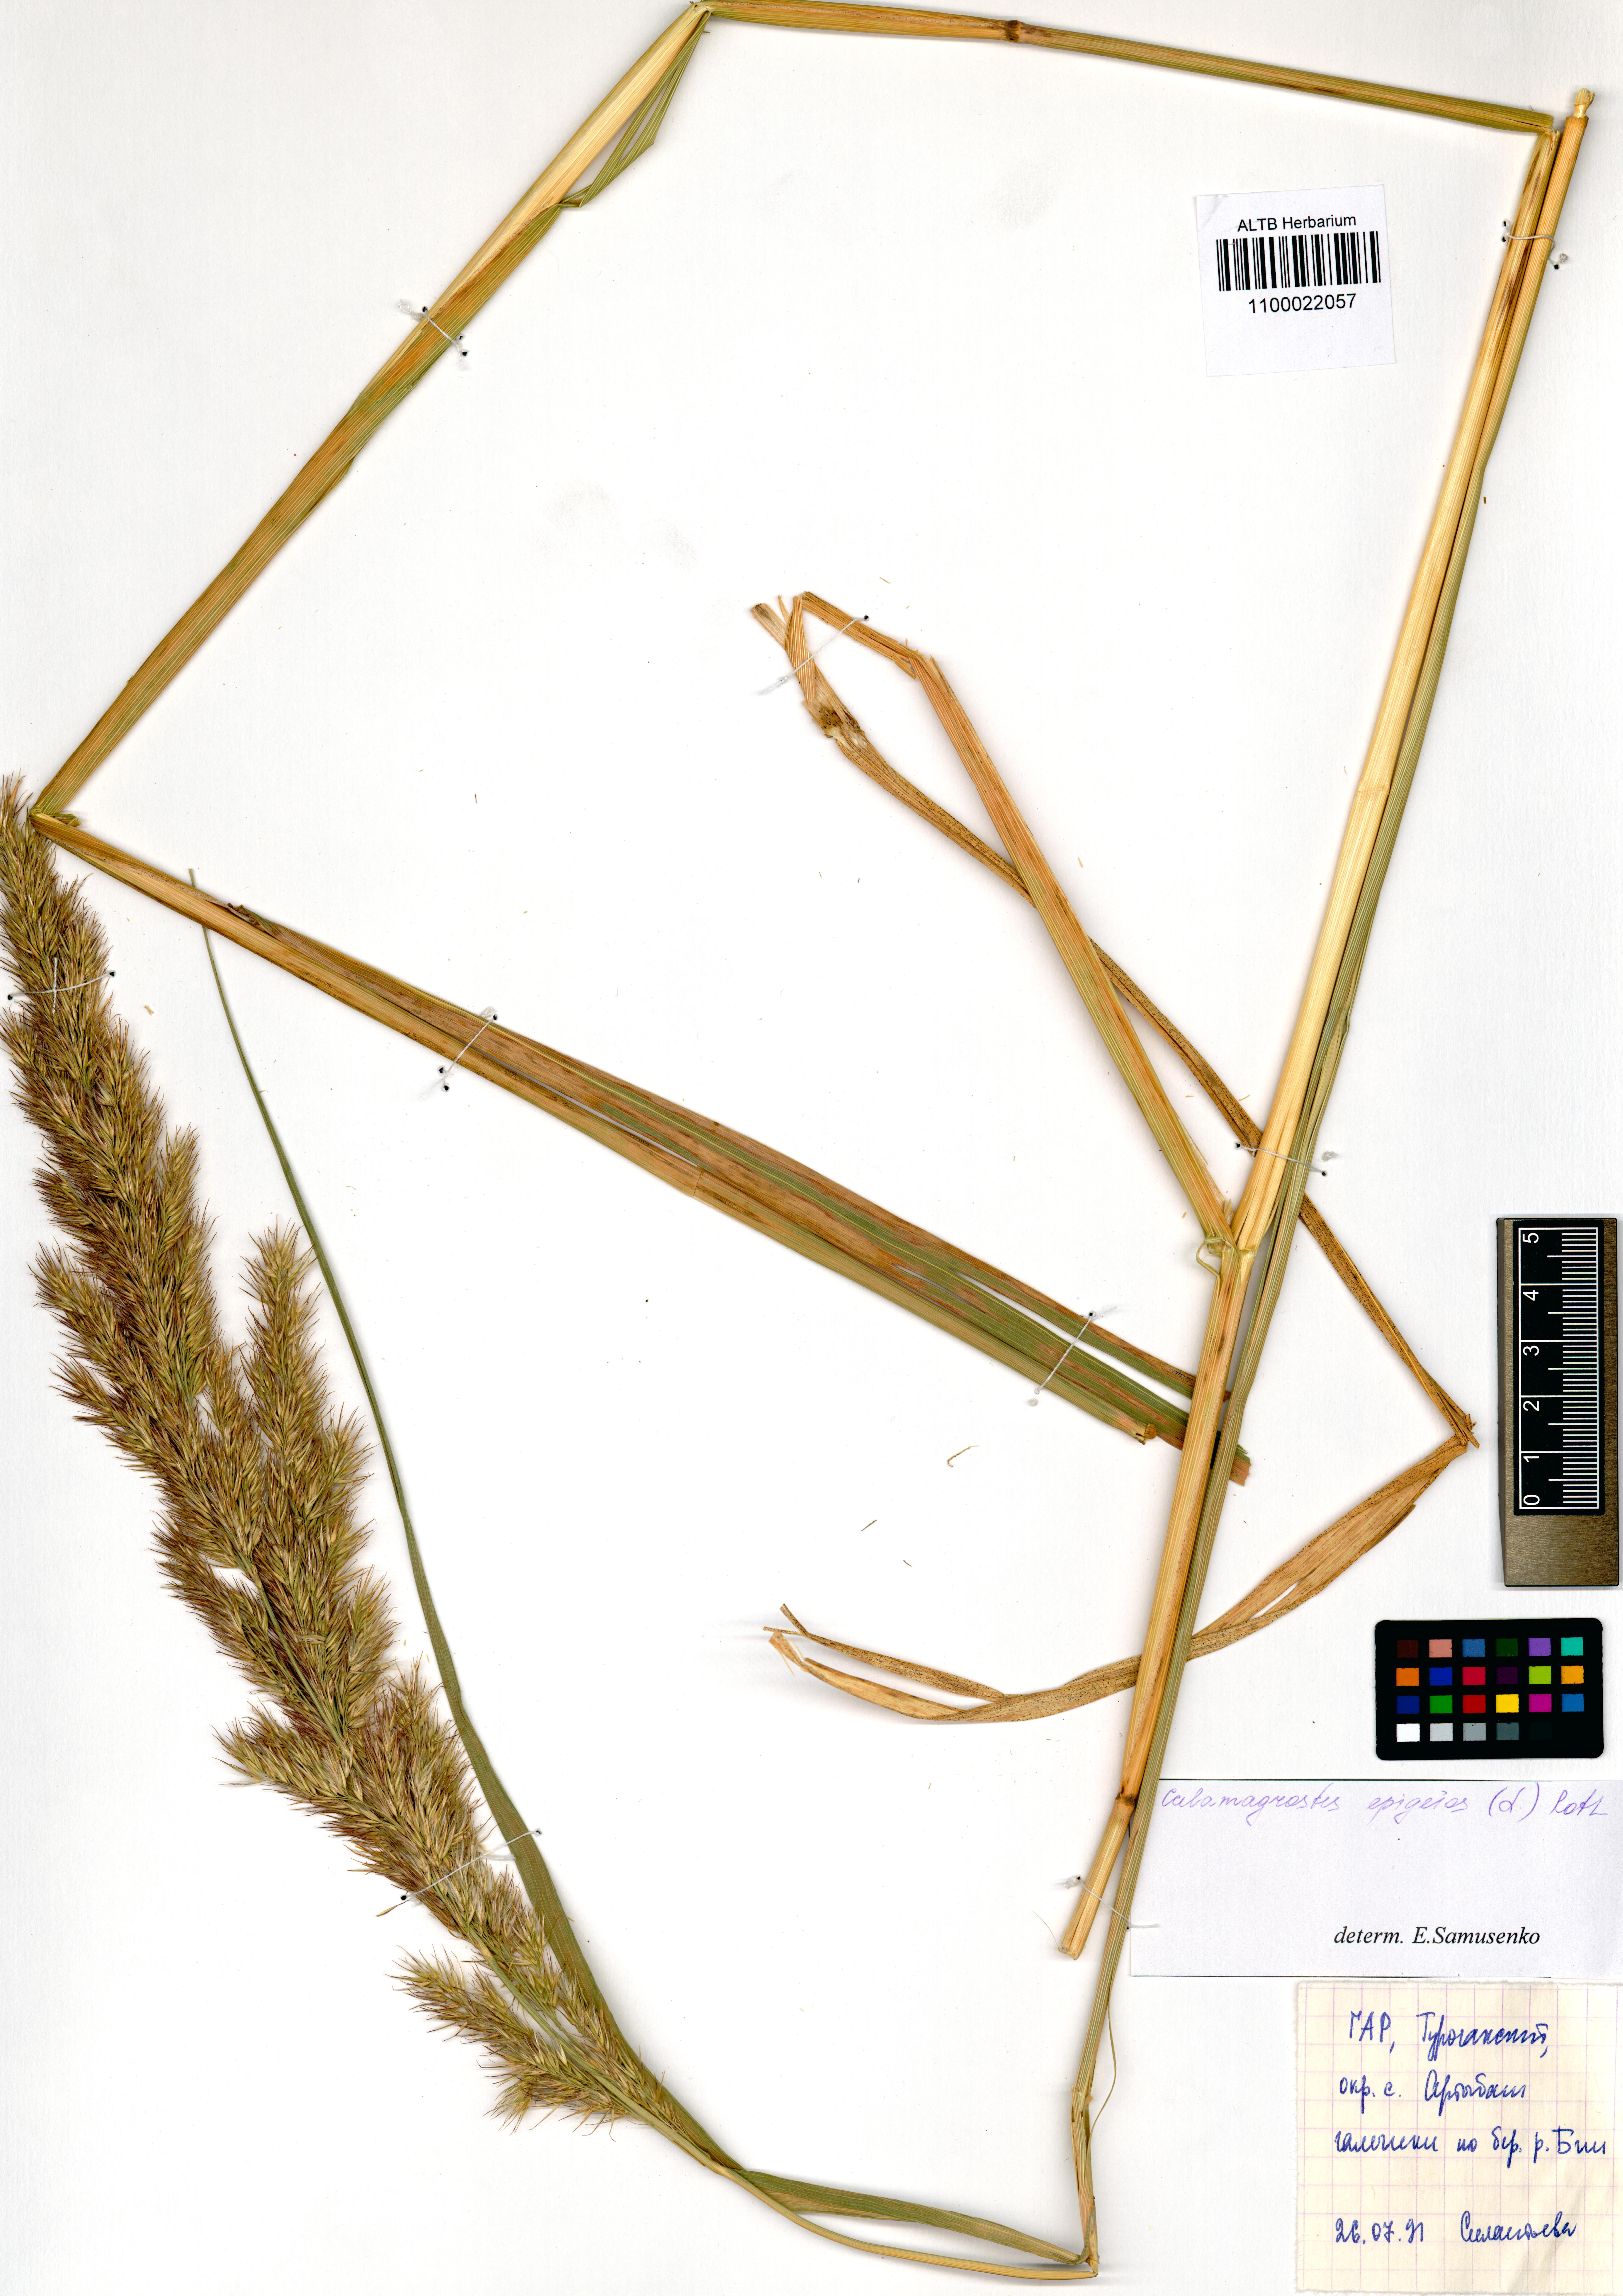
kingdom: Plantae
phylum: Tracheophyta
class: Liliopsida
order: Poales
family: Poaceae
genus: Calamagrostis
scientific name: Calamagrostis epigejos
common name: Wood small-reed
